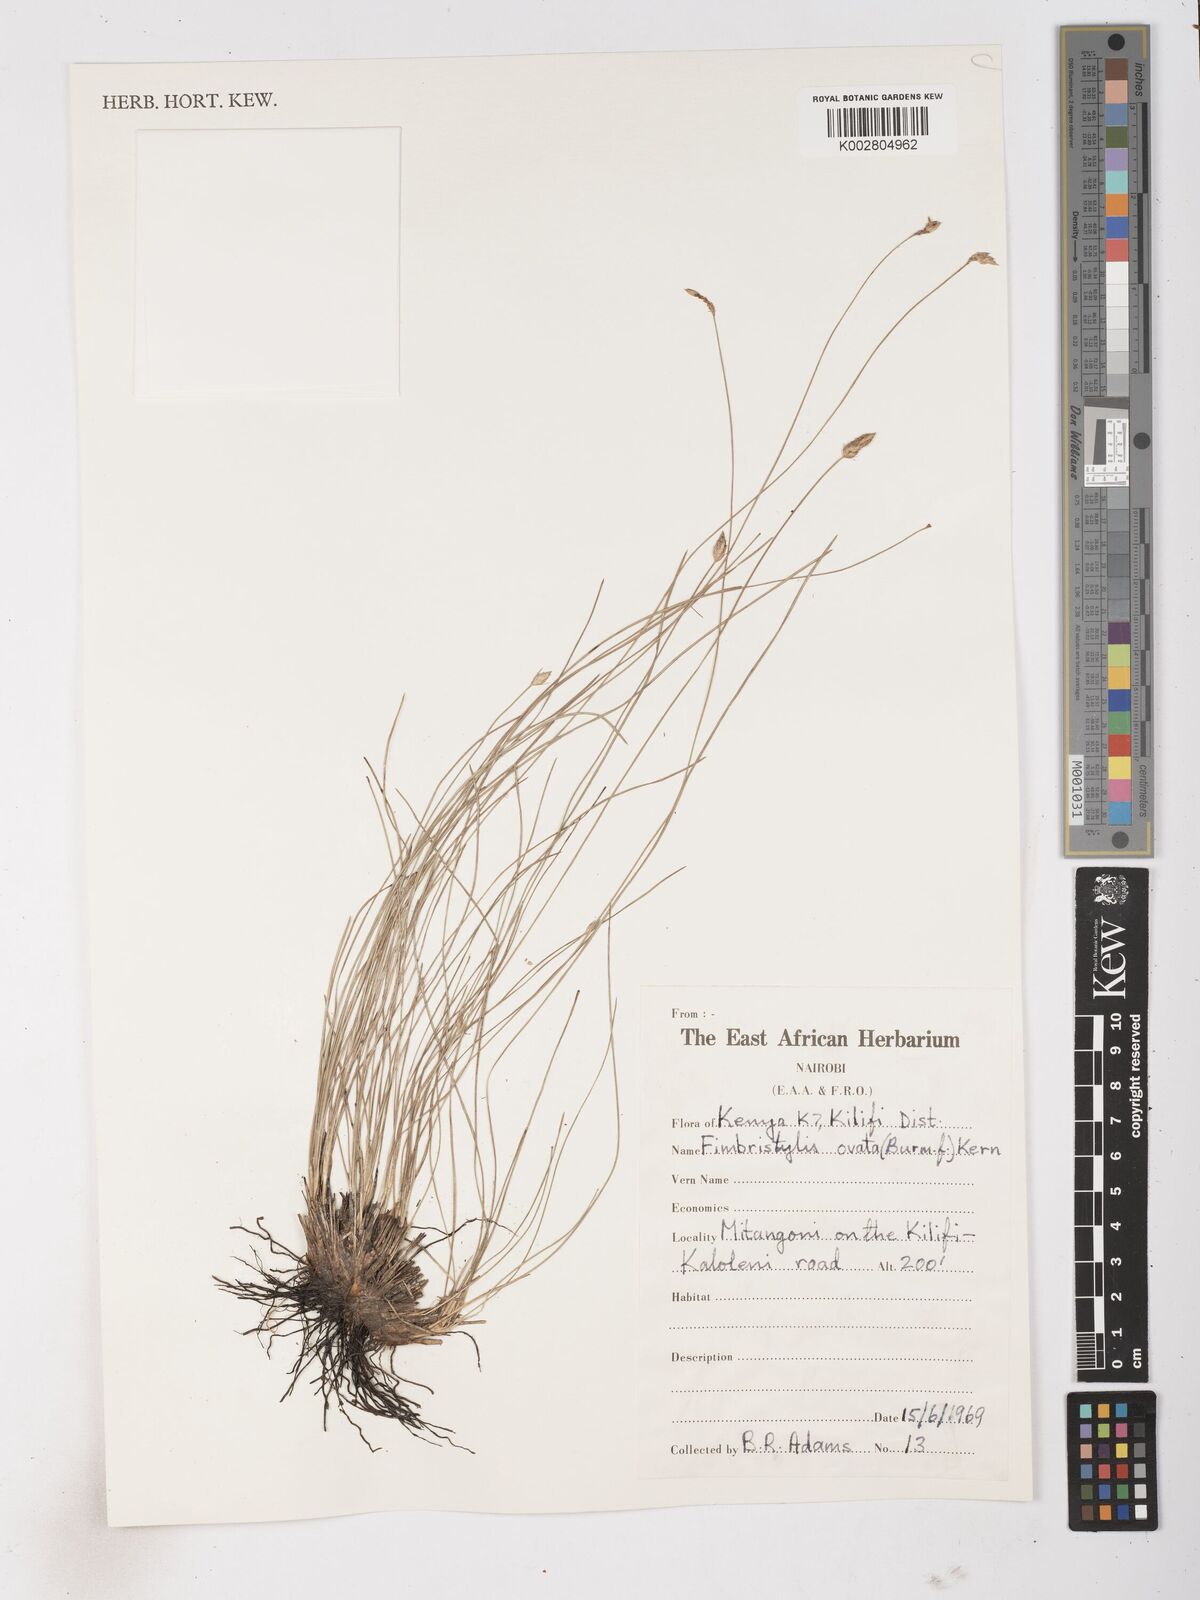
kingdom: Plantae
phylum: Tracheophyta
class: Liliopsida
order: Poales
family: Cyperaceae
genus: Abildgaardia
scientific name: Abildgaardia ovata
